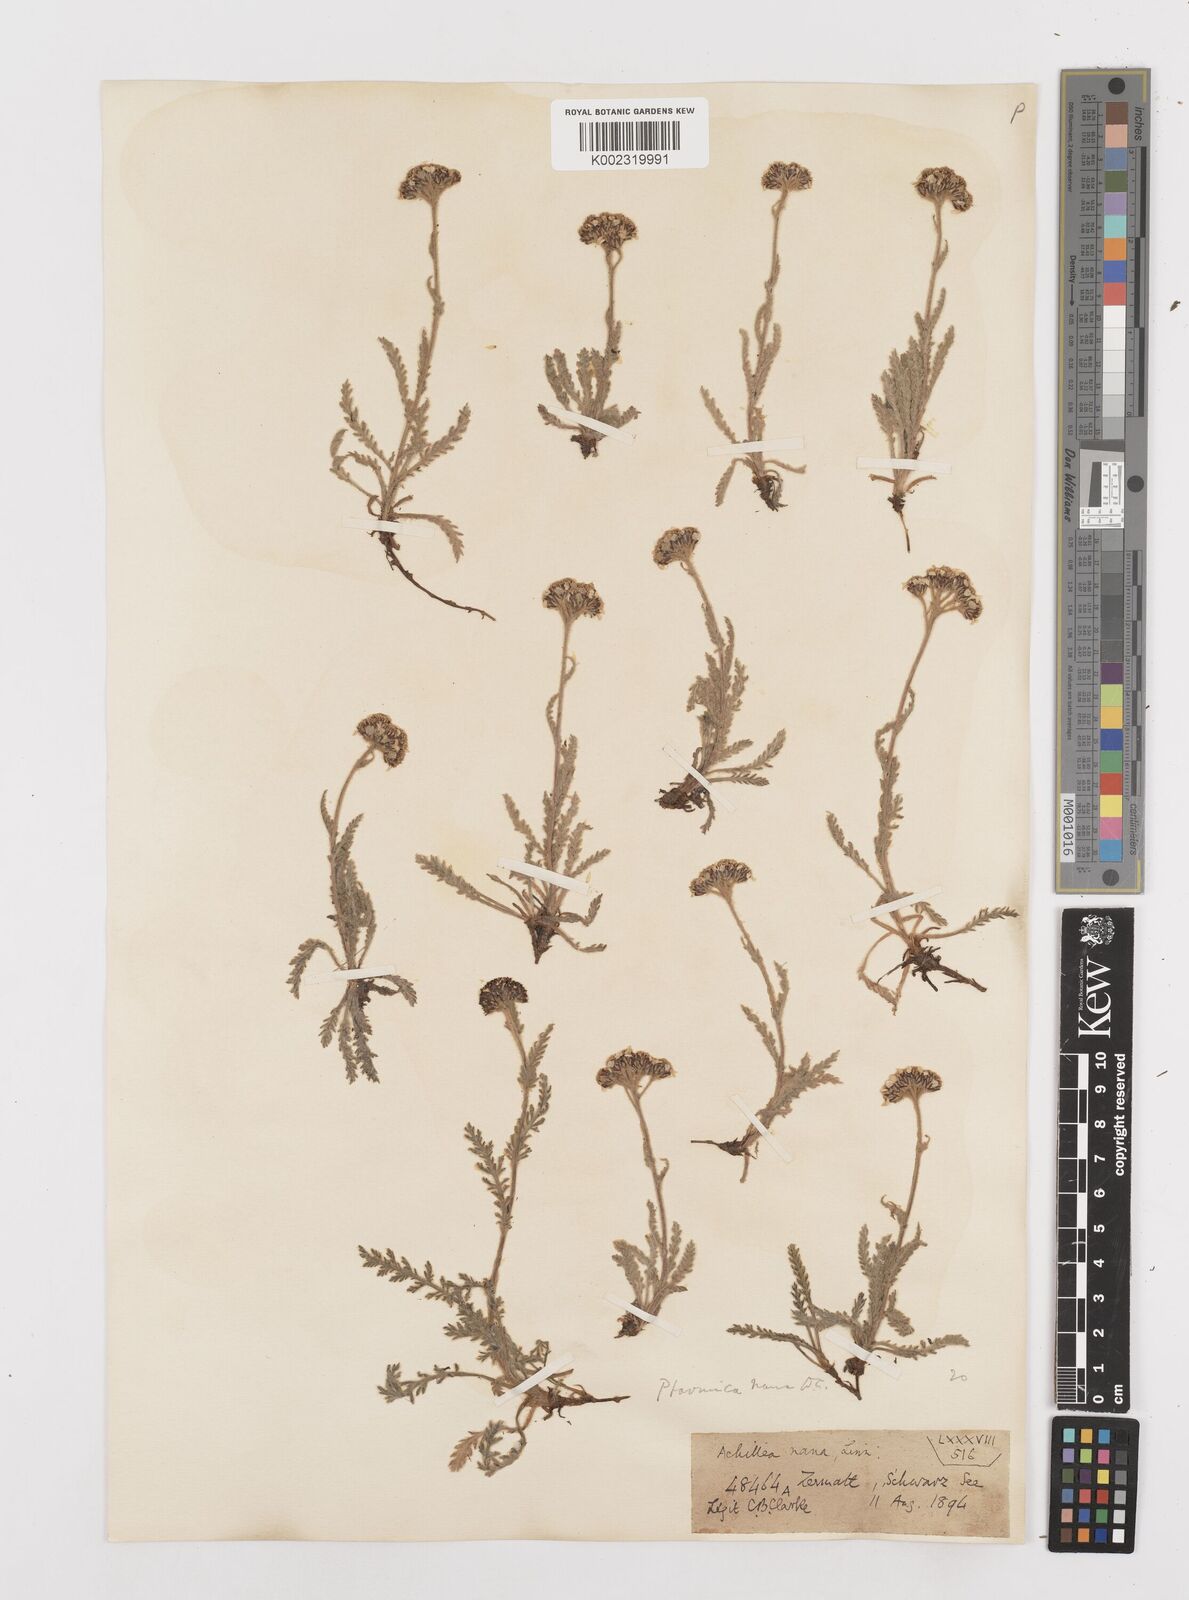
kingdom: Plantae
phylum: Tracheophyta
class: Magnoliopsida
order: Asterales
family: Asteraceae
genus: Achillea
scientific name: Achillea nana
